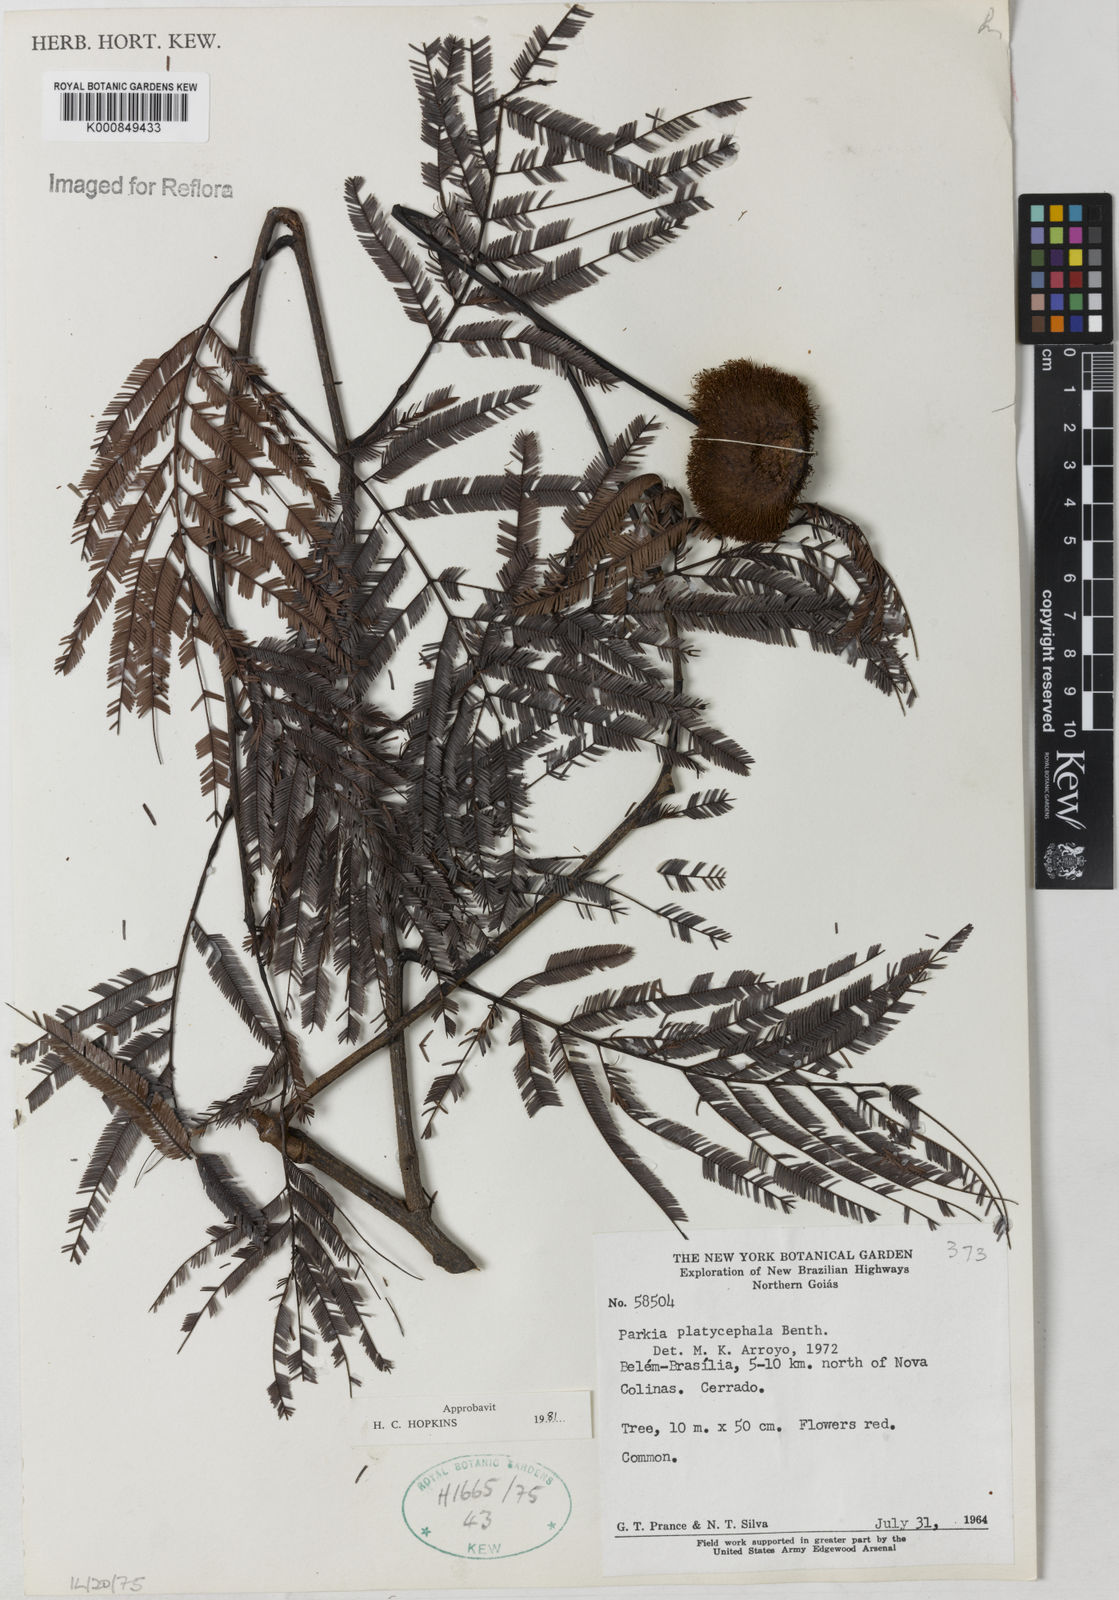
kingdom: Plantae
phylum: Tracheophyta
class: Magnoliopsida
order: Fabales
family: Fabaceae
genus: Parkia
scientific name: Parkia platycephala
